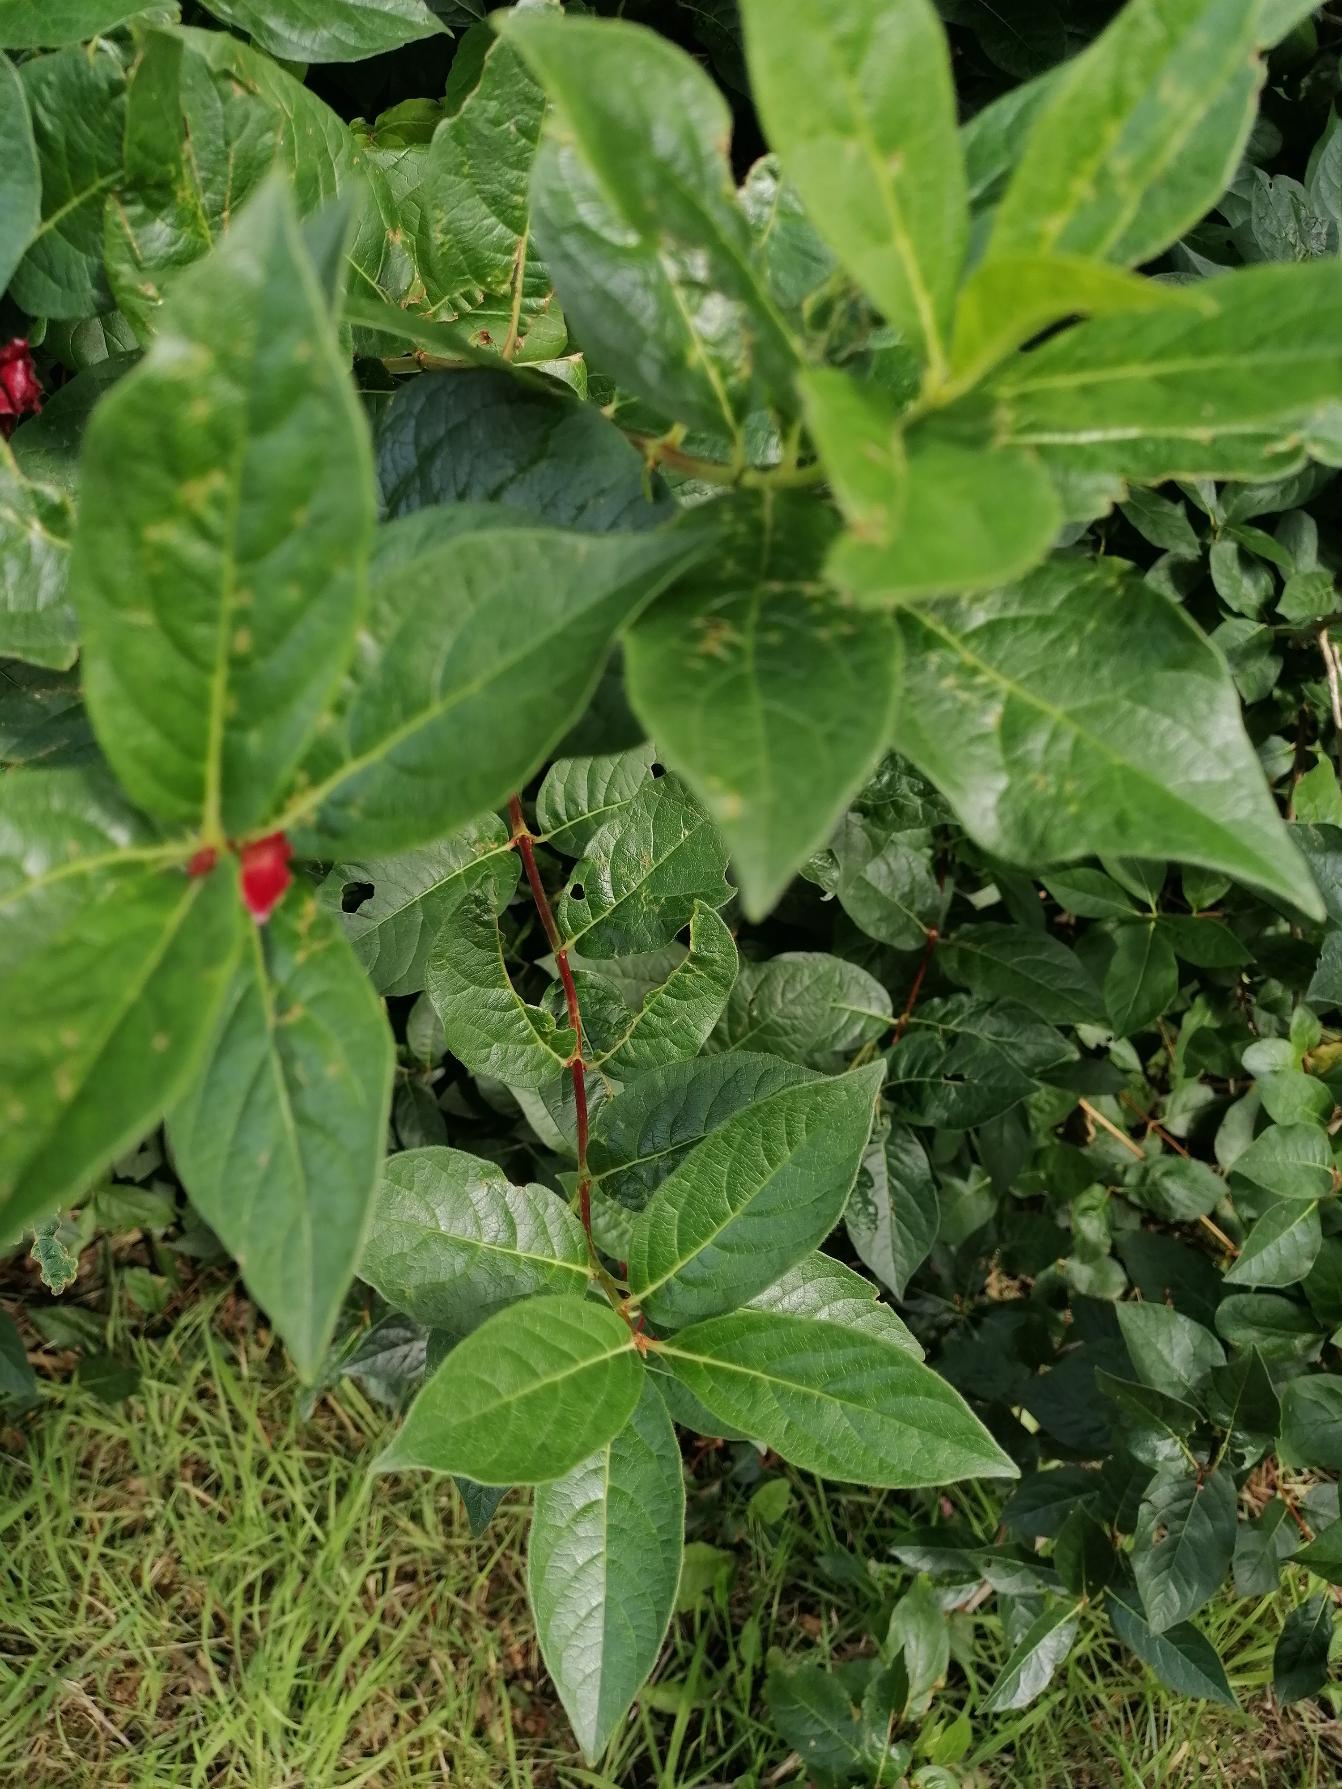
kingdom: Plantae
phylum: Tracheophyta
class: Magnoliopsida
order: Dipsacales
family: Caprifoliaceae
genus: Lonicera
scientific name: Lonicera involucrata
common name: Californisk gedeblad
